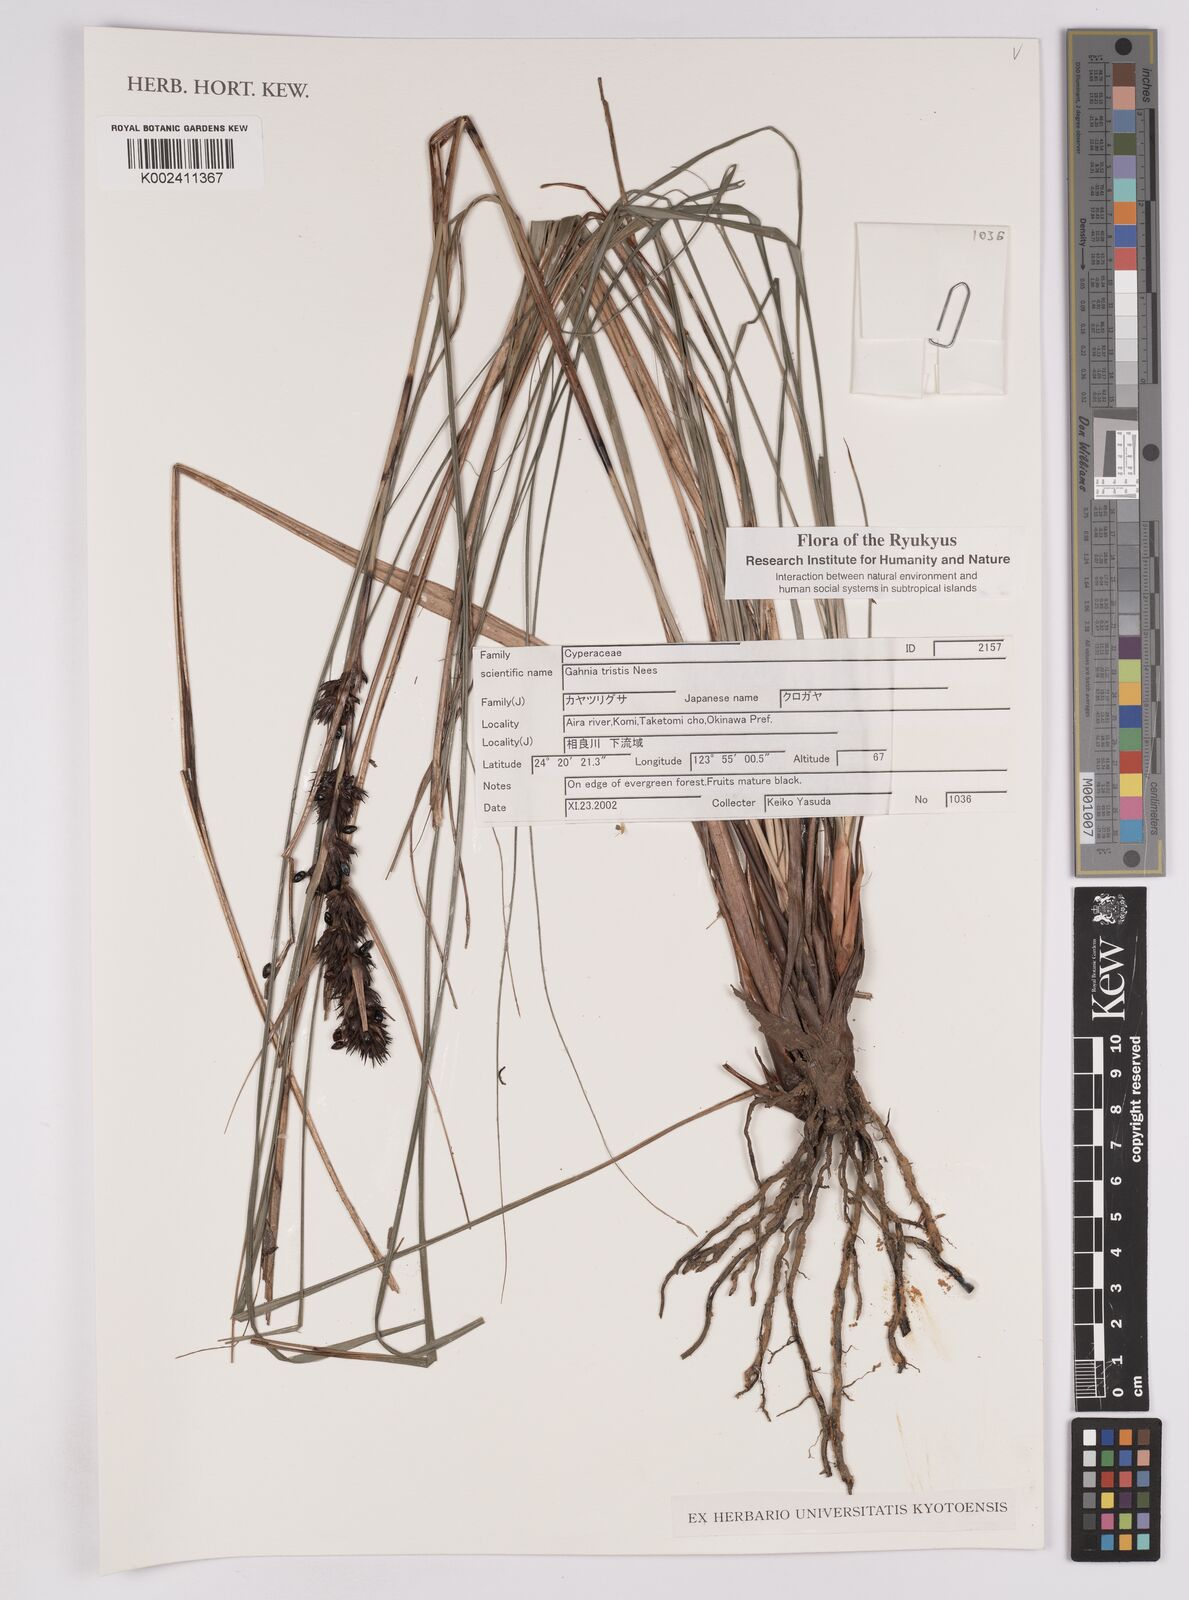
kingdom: Plantae
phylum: Tracheophyta
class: Liliopsida
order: Poales
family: Cyperaceae
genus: Gahnia
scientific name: Gahnia tristis
